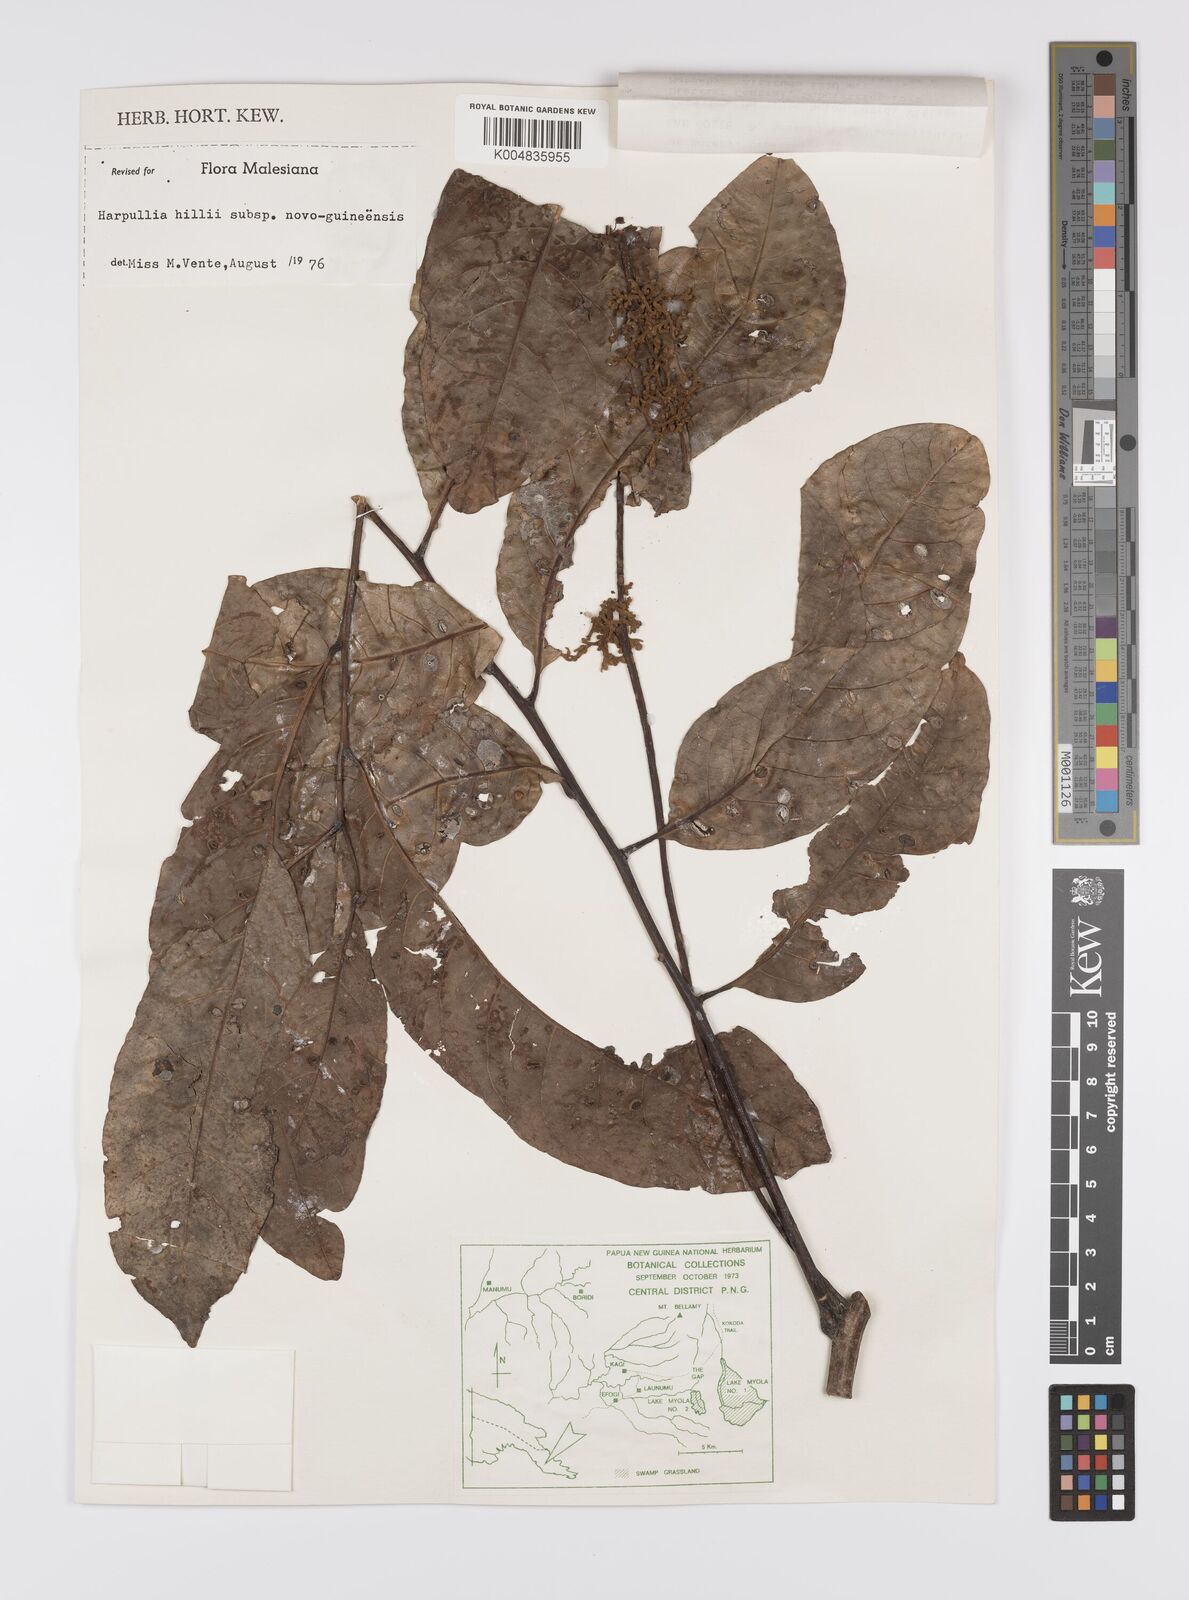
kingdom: Plantae
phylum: Tracheophyta
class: Magnoliopsida
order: Sapindales
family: Sapindaceae
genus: Harpullia
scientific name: Harpullia cupanioides
